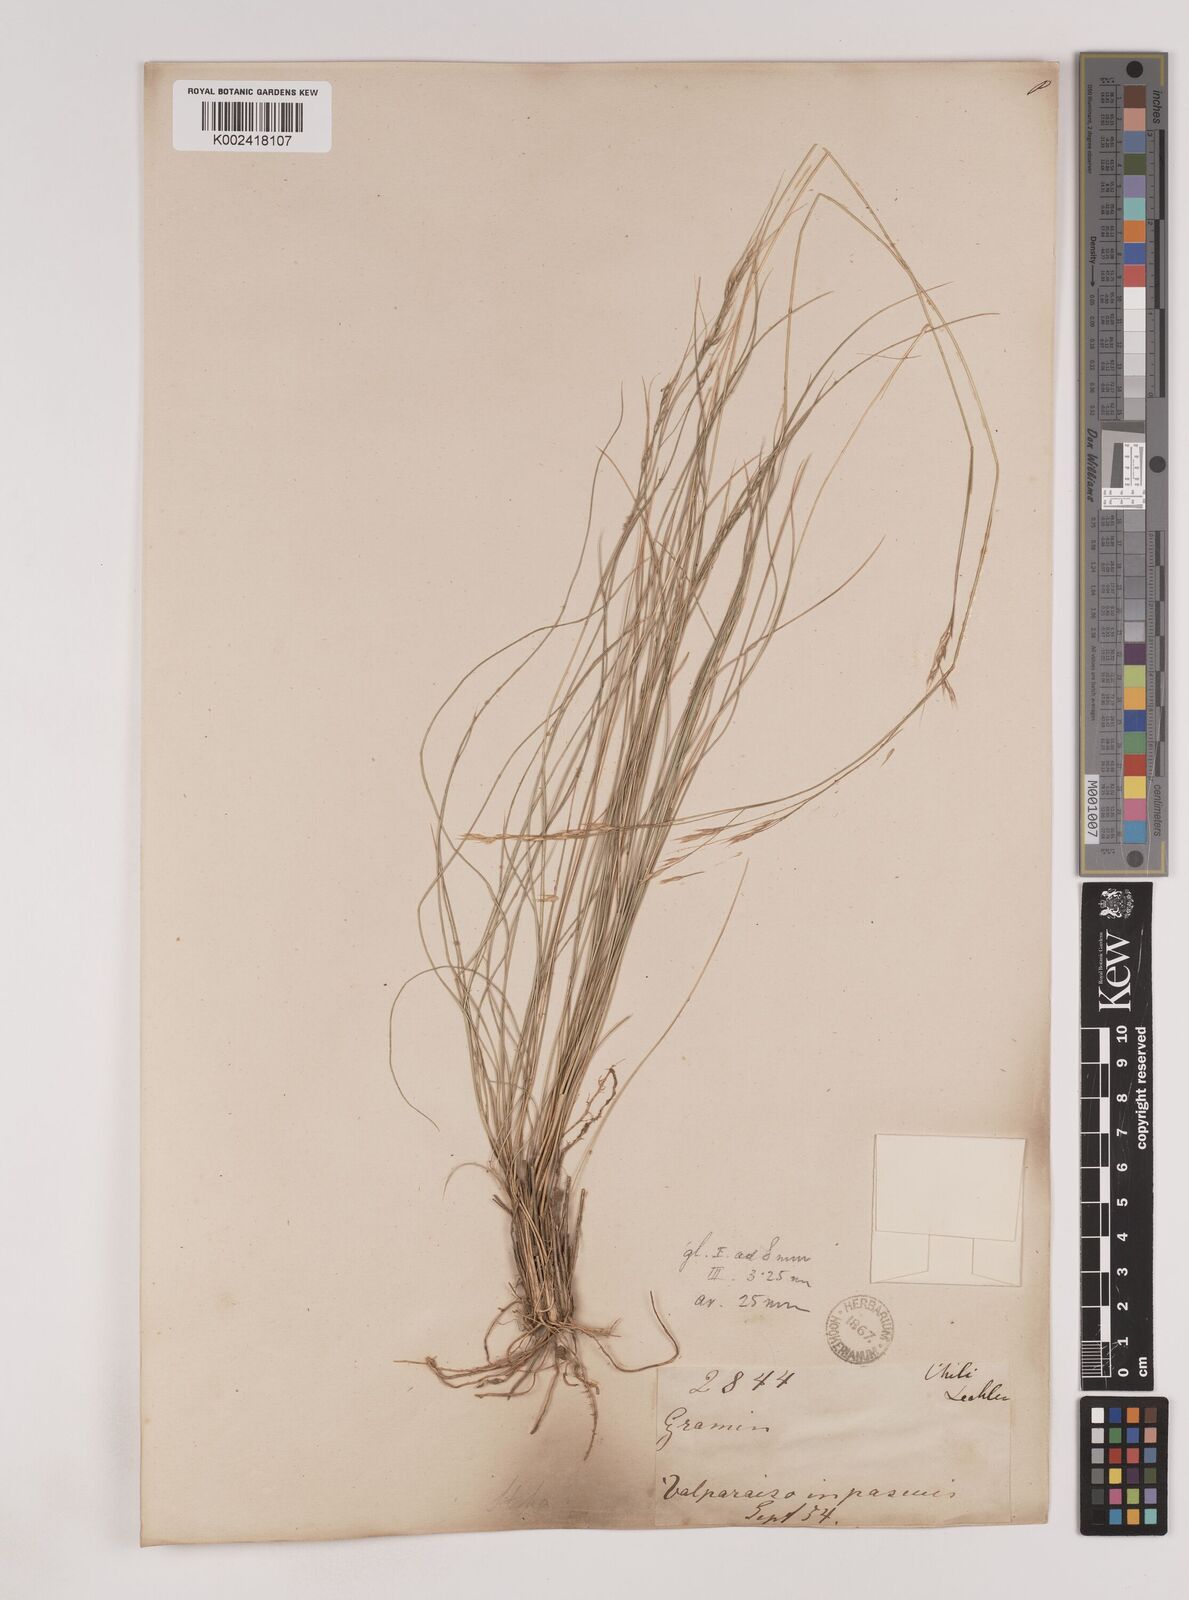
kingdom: Plantae
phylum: Tracheophyta
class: Liliopsida
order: Poales
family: Poaceae
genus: Nassella
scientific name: Nassella
